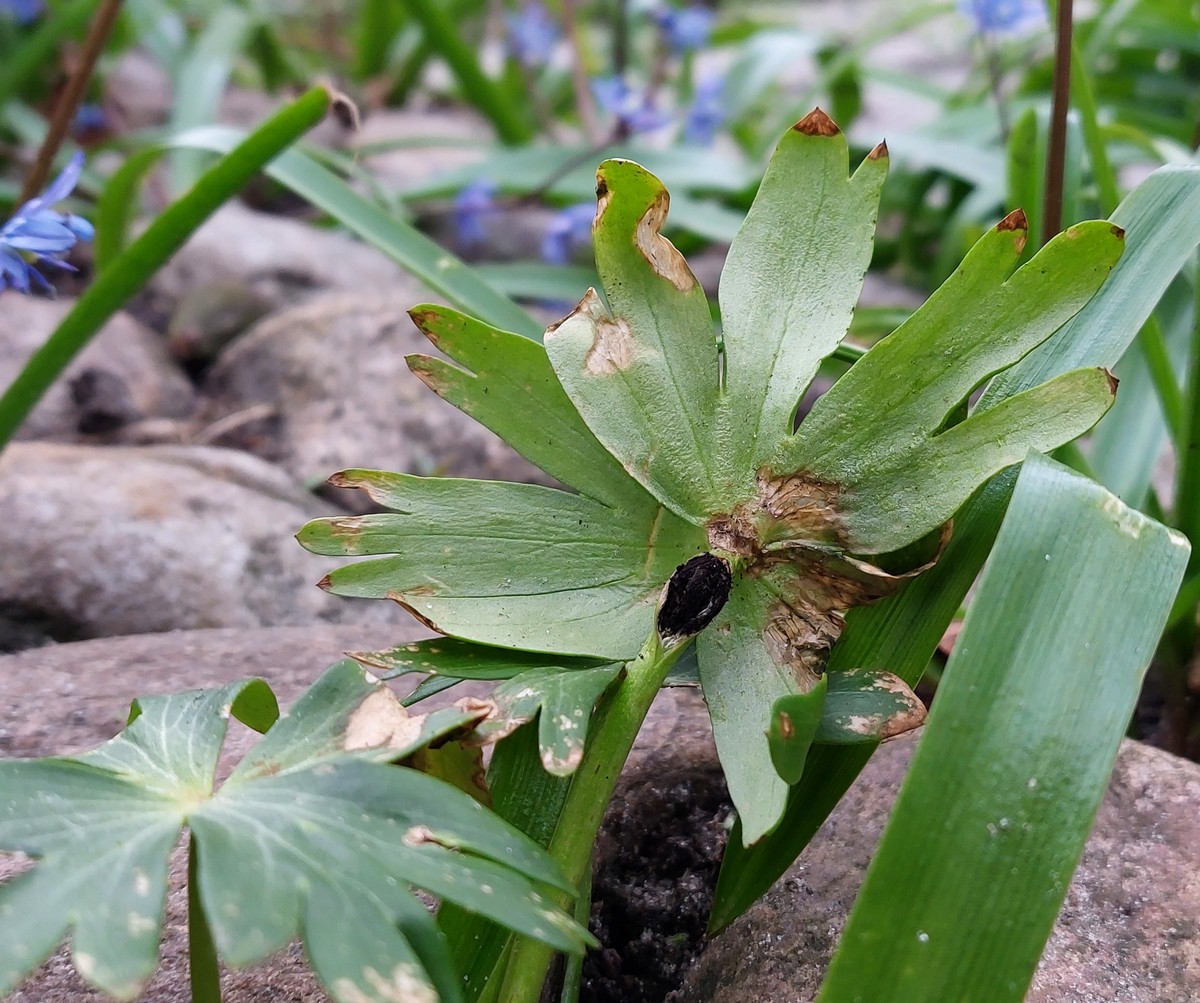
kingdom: Fungi
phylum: Basidiomycota
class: Ustilaginomycetes
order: Urocystidales
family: Urocystidaceae
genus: Urocystis
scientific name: Urocystis eranthidis
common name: erantis-brand
